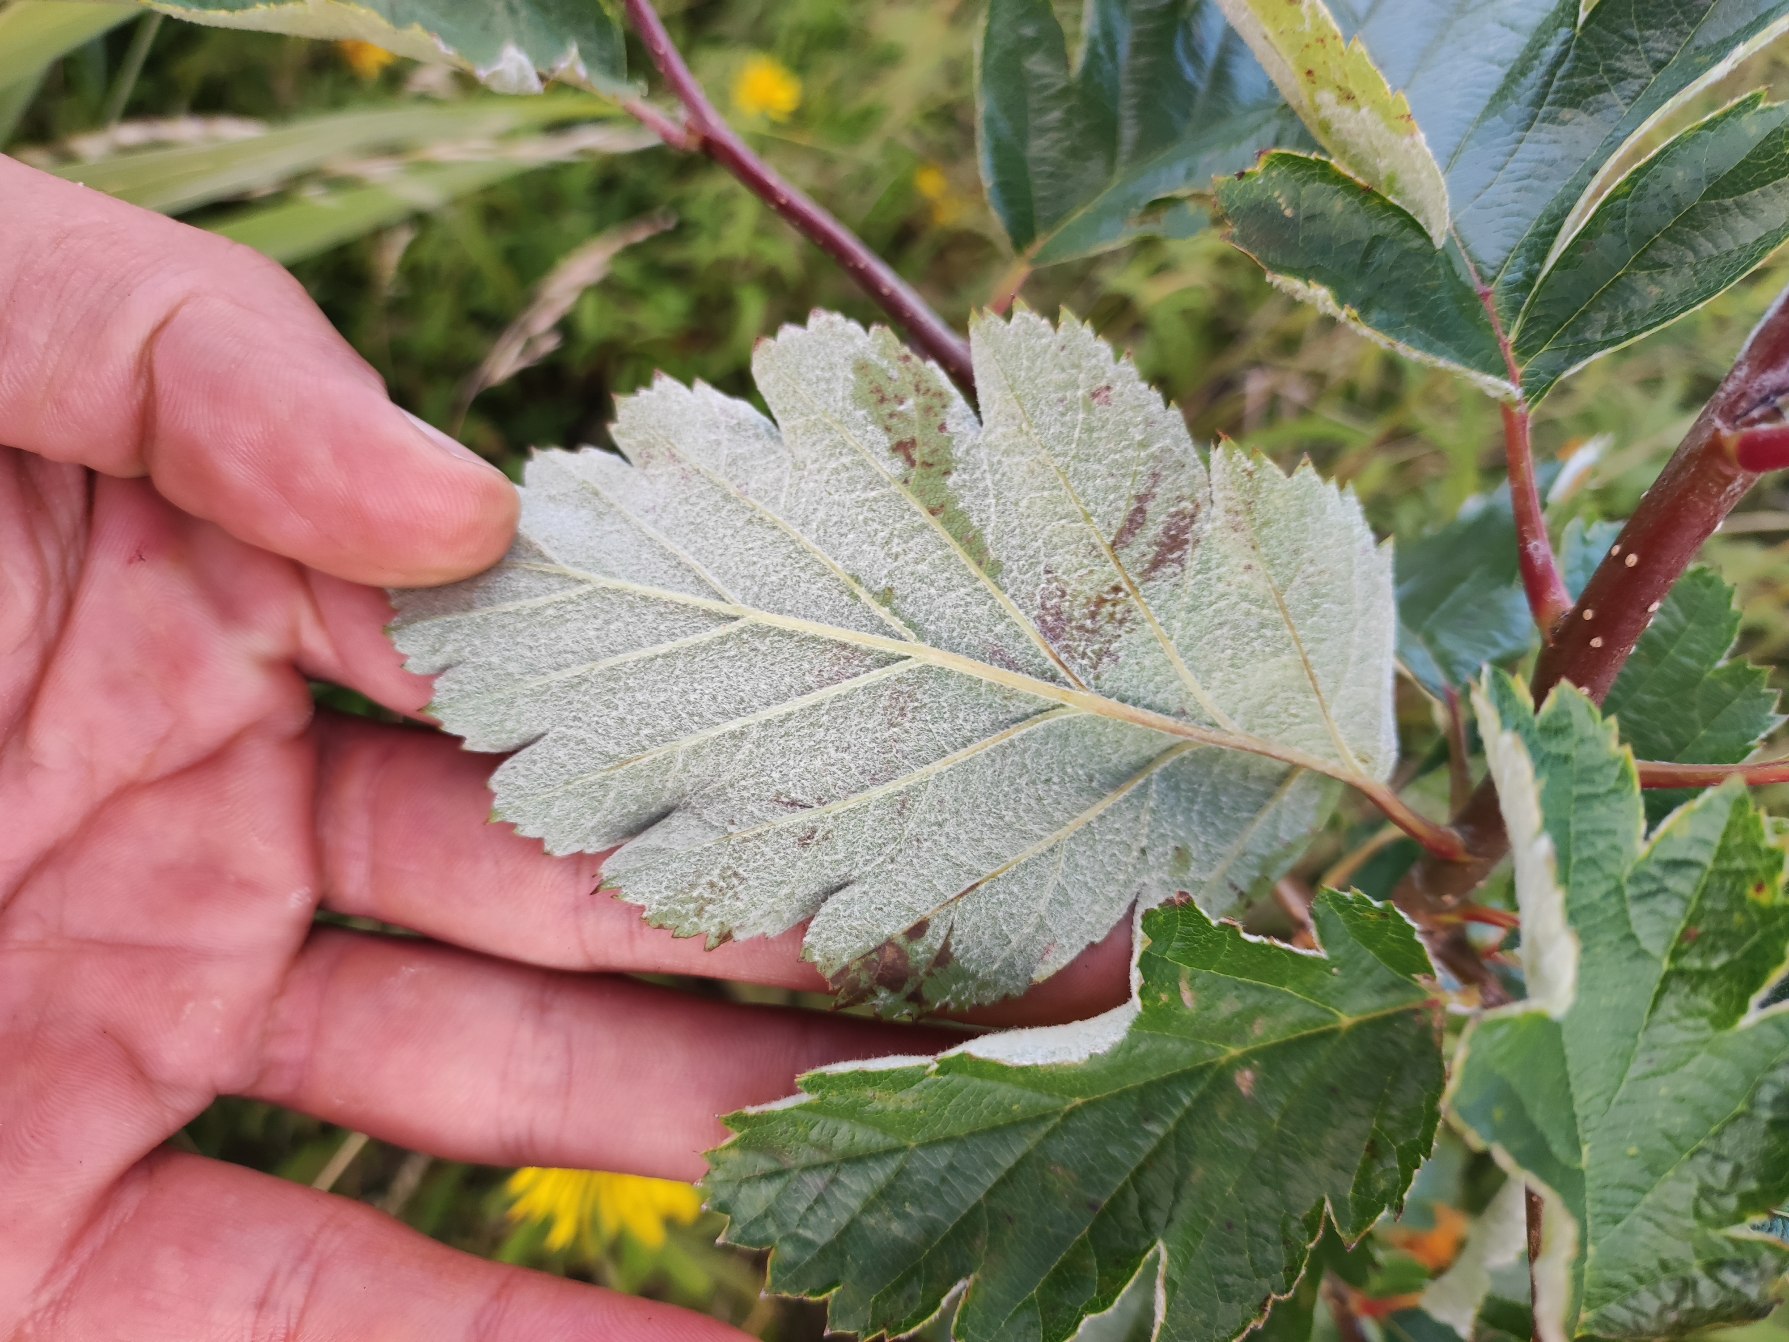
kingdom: Plantae
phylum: Tracheophyta
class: Magnoliopsida
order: Rosales
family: Rosaceae
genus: Scandosorbus
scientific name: Scandosorbus intermedia
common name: Selje-røn
